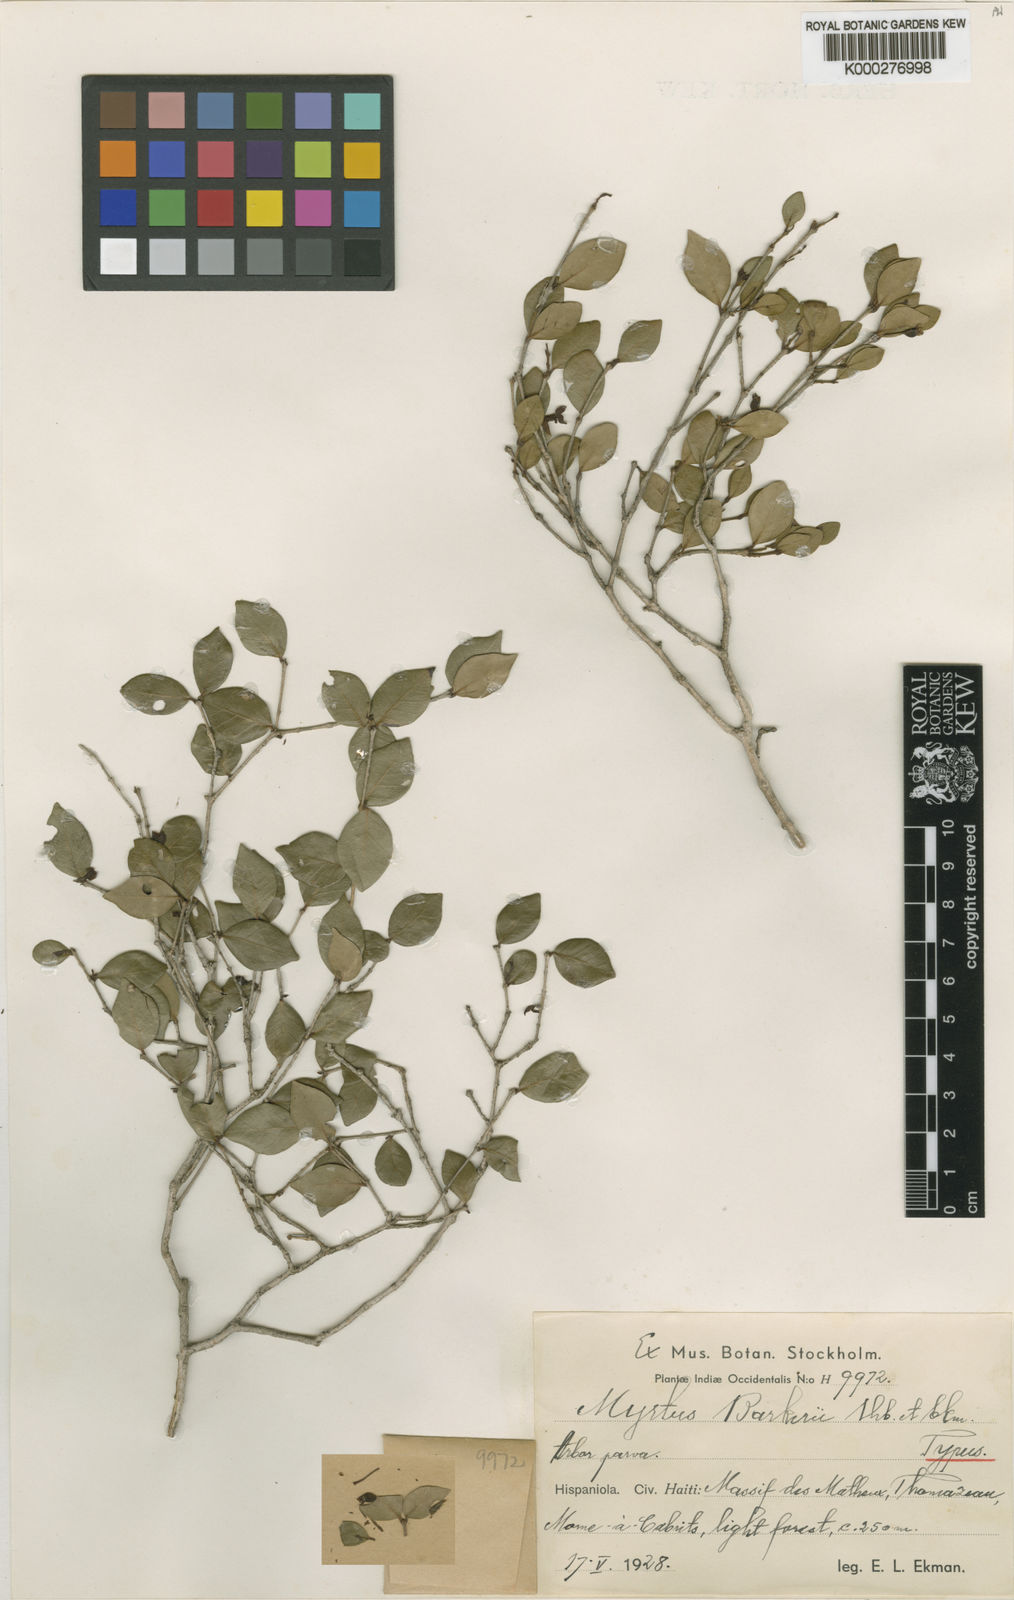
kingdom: Plantae
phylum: Tracheophyta
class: Magnoliopsida
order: Myrtales
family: Myrtaceae
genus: Myrtus
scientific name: Myrtus
